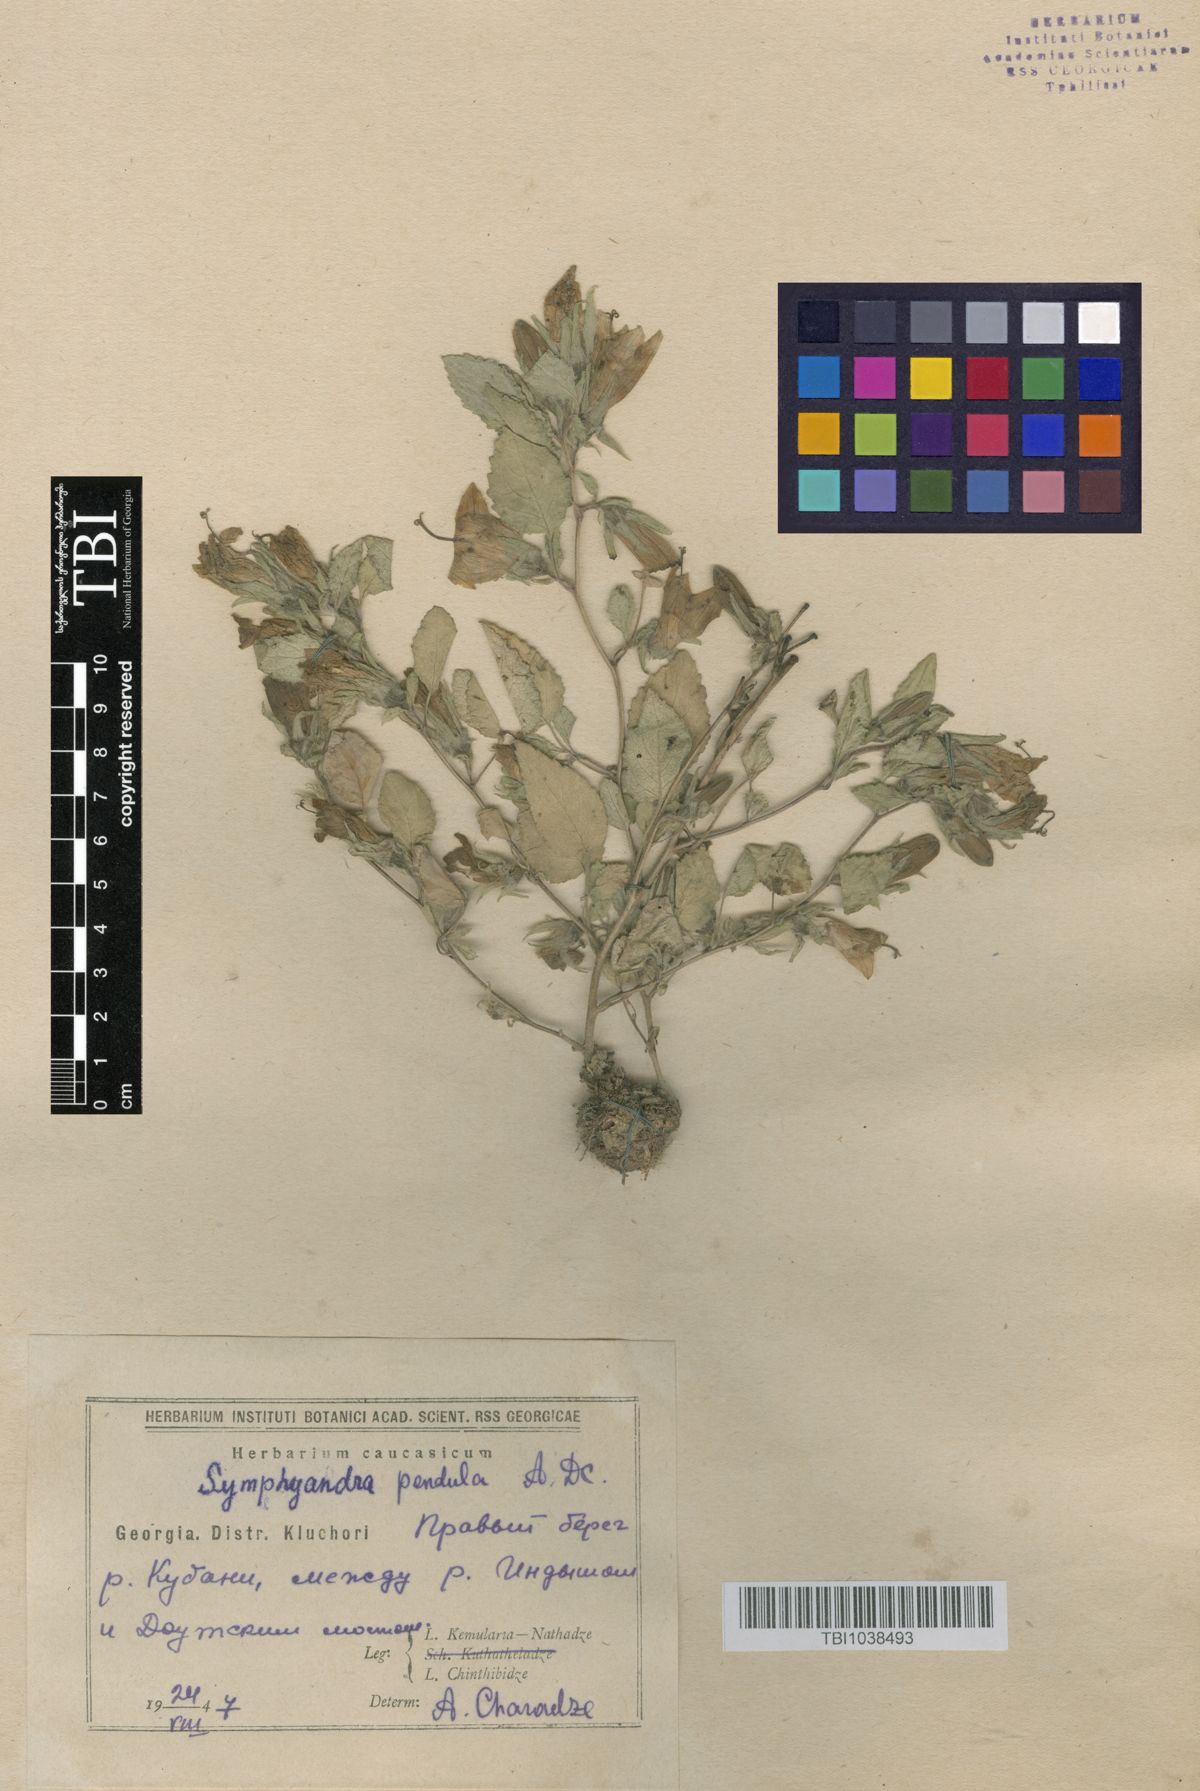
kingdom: Plantae
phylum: Tracheophyta
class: Magnoliopsida
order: Asterales
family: Campanulaceae
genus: Campanula
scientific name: Campanula pendula
